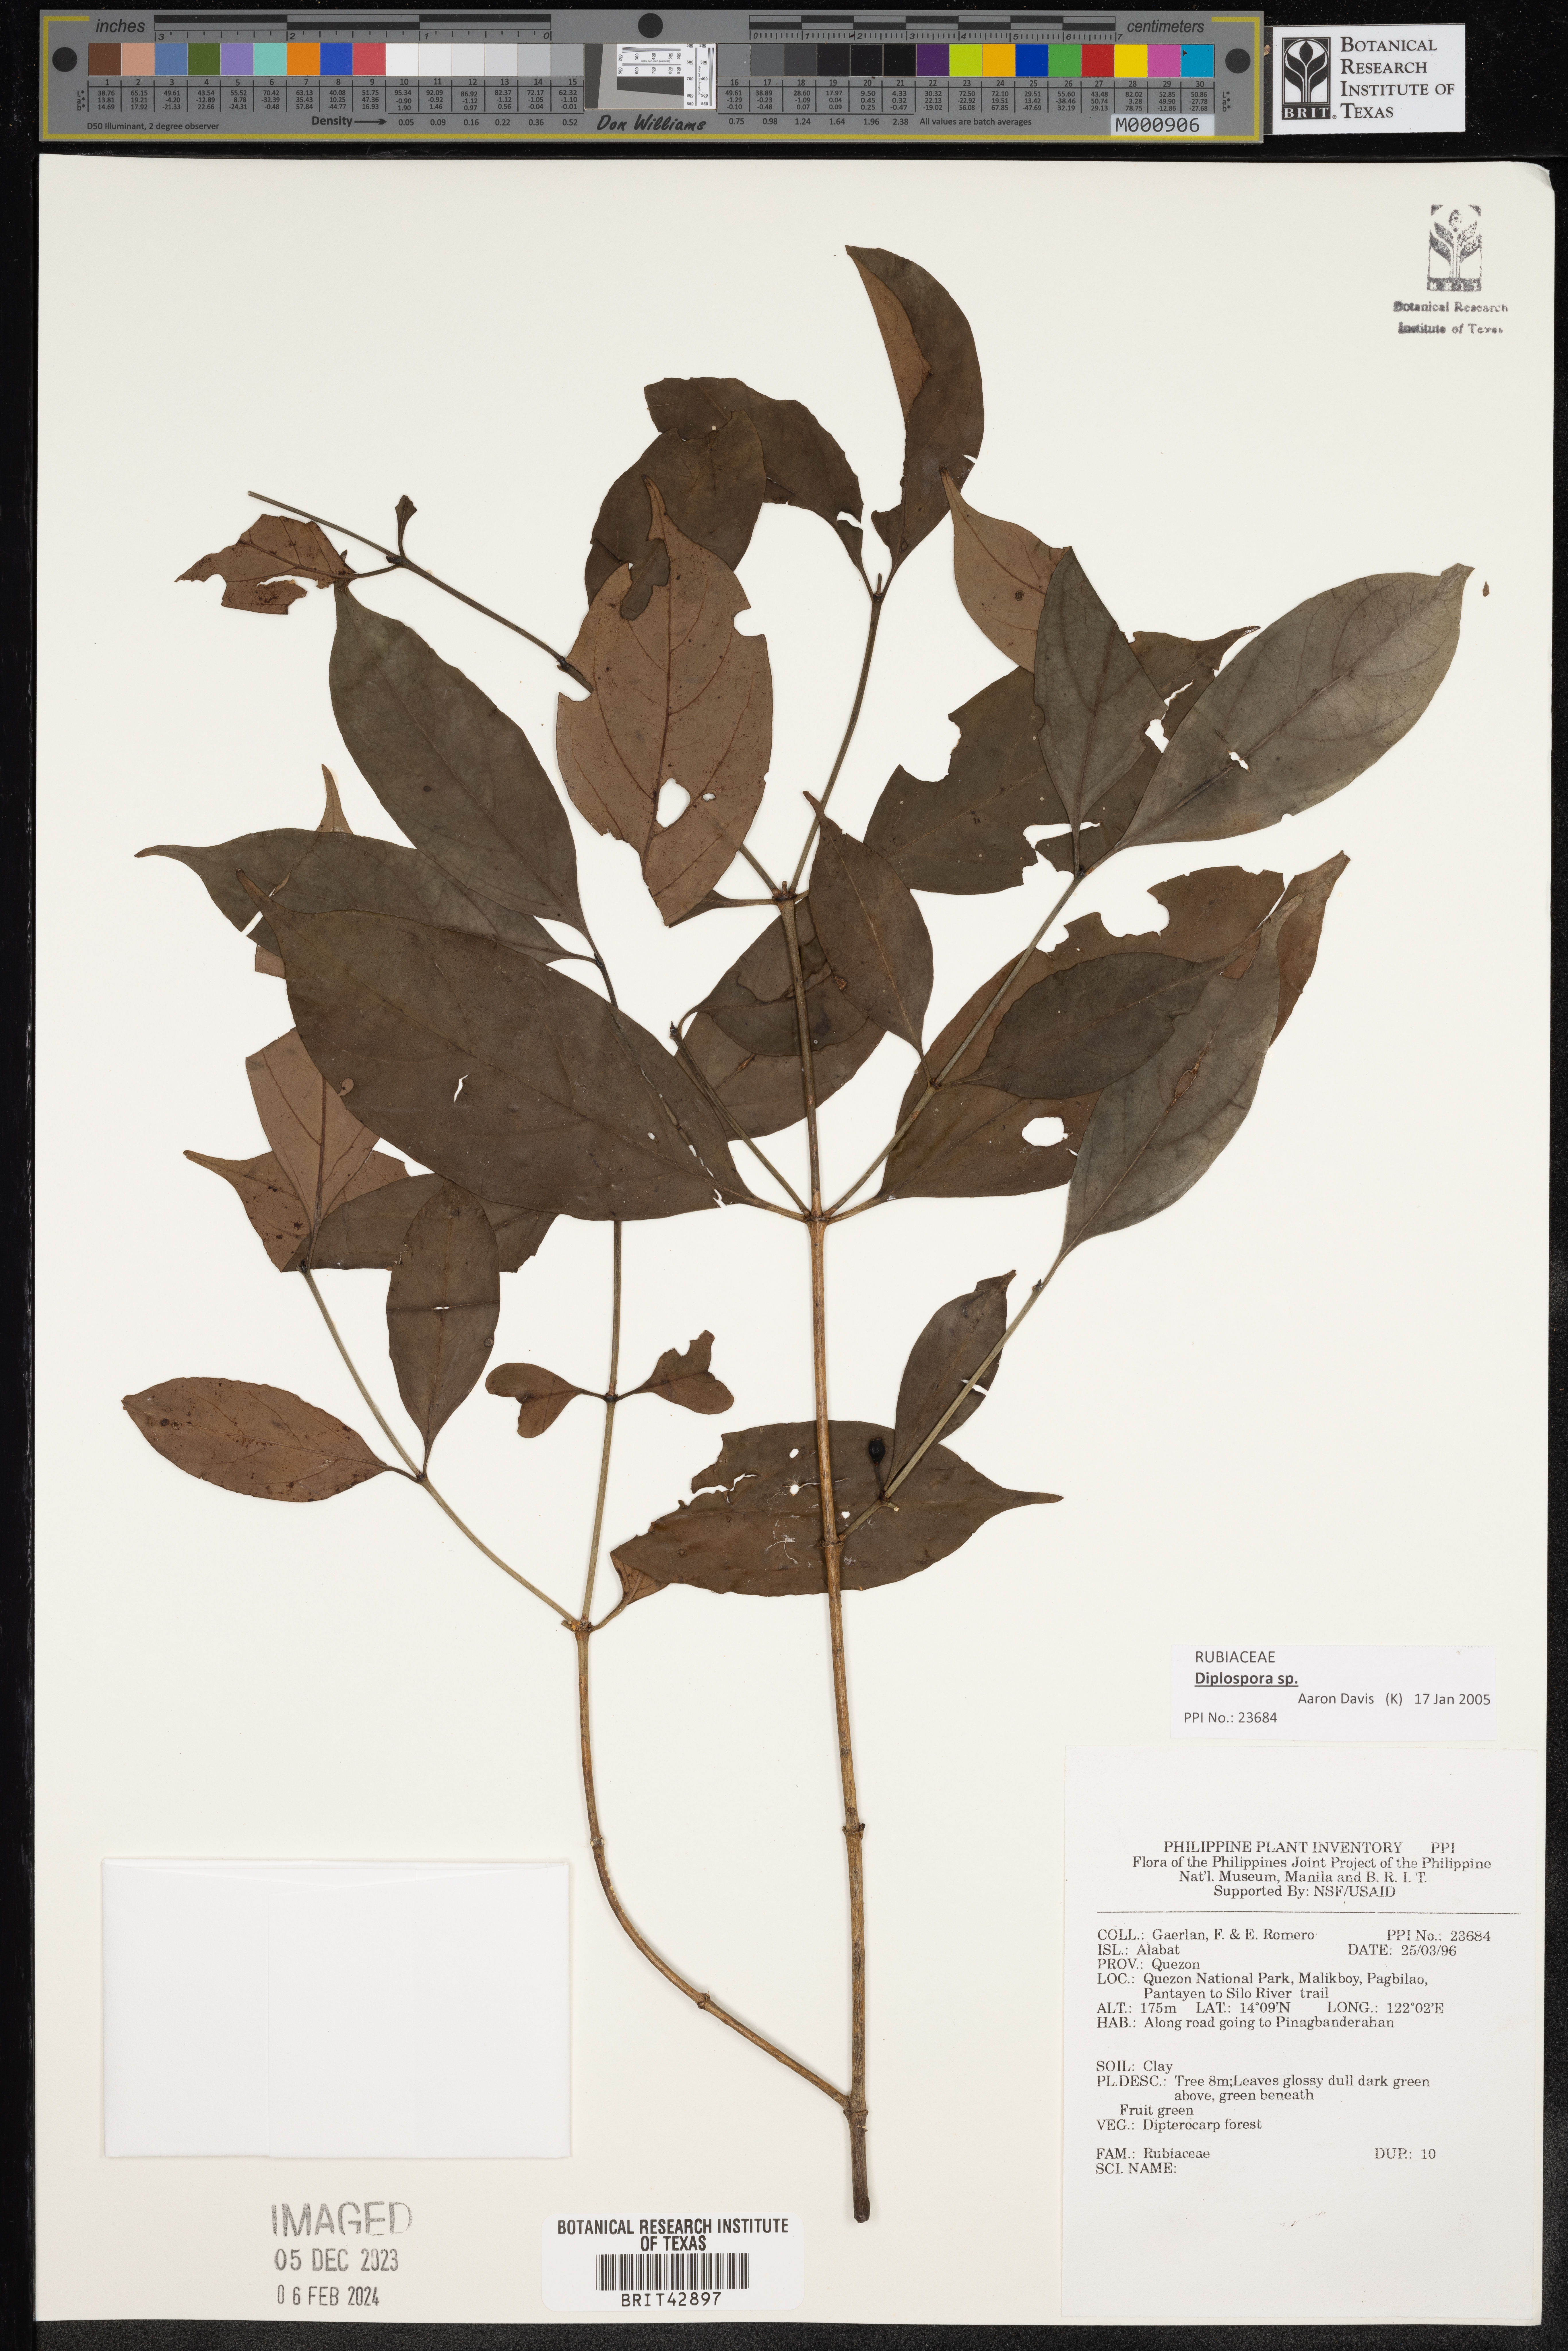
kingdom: Plantae
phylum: Tracheophyta
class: Magnoliopsida
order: Gentianales
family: Rubiaceae
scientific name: Rubiaceae
